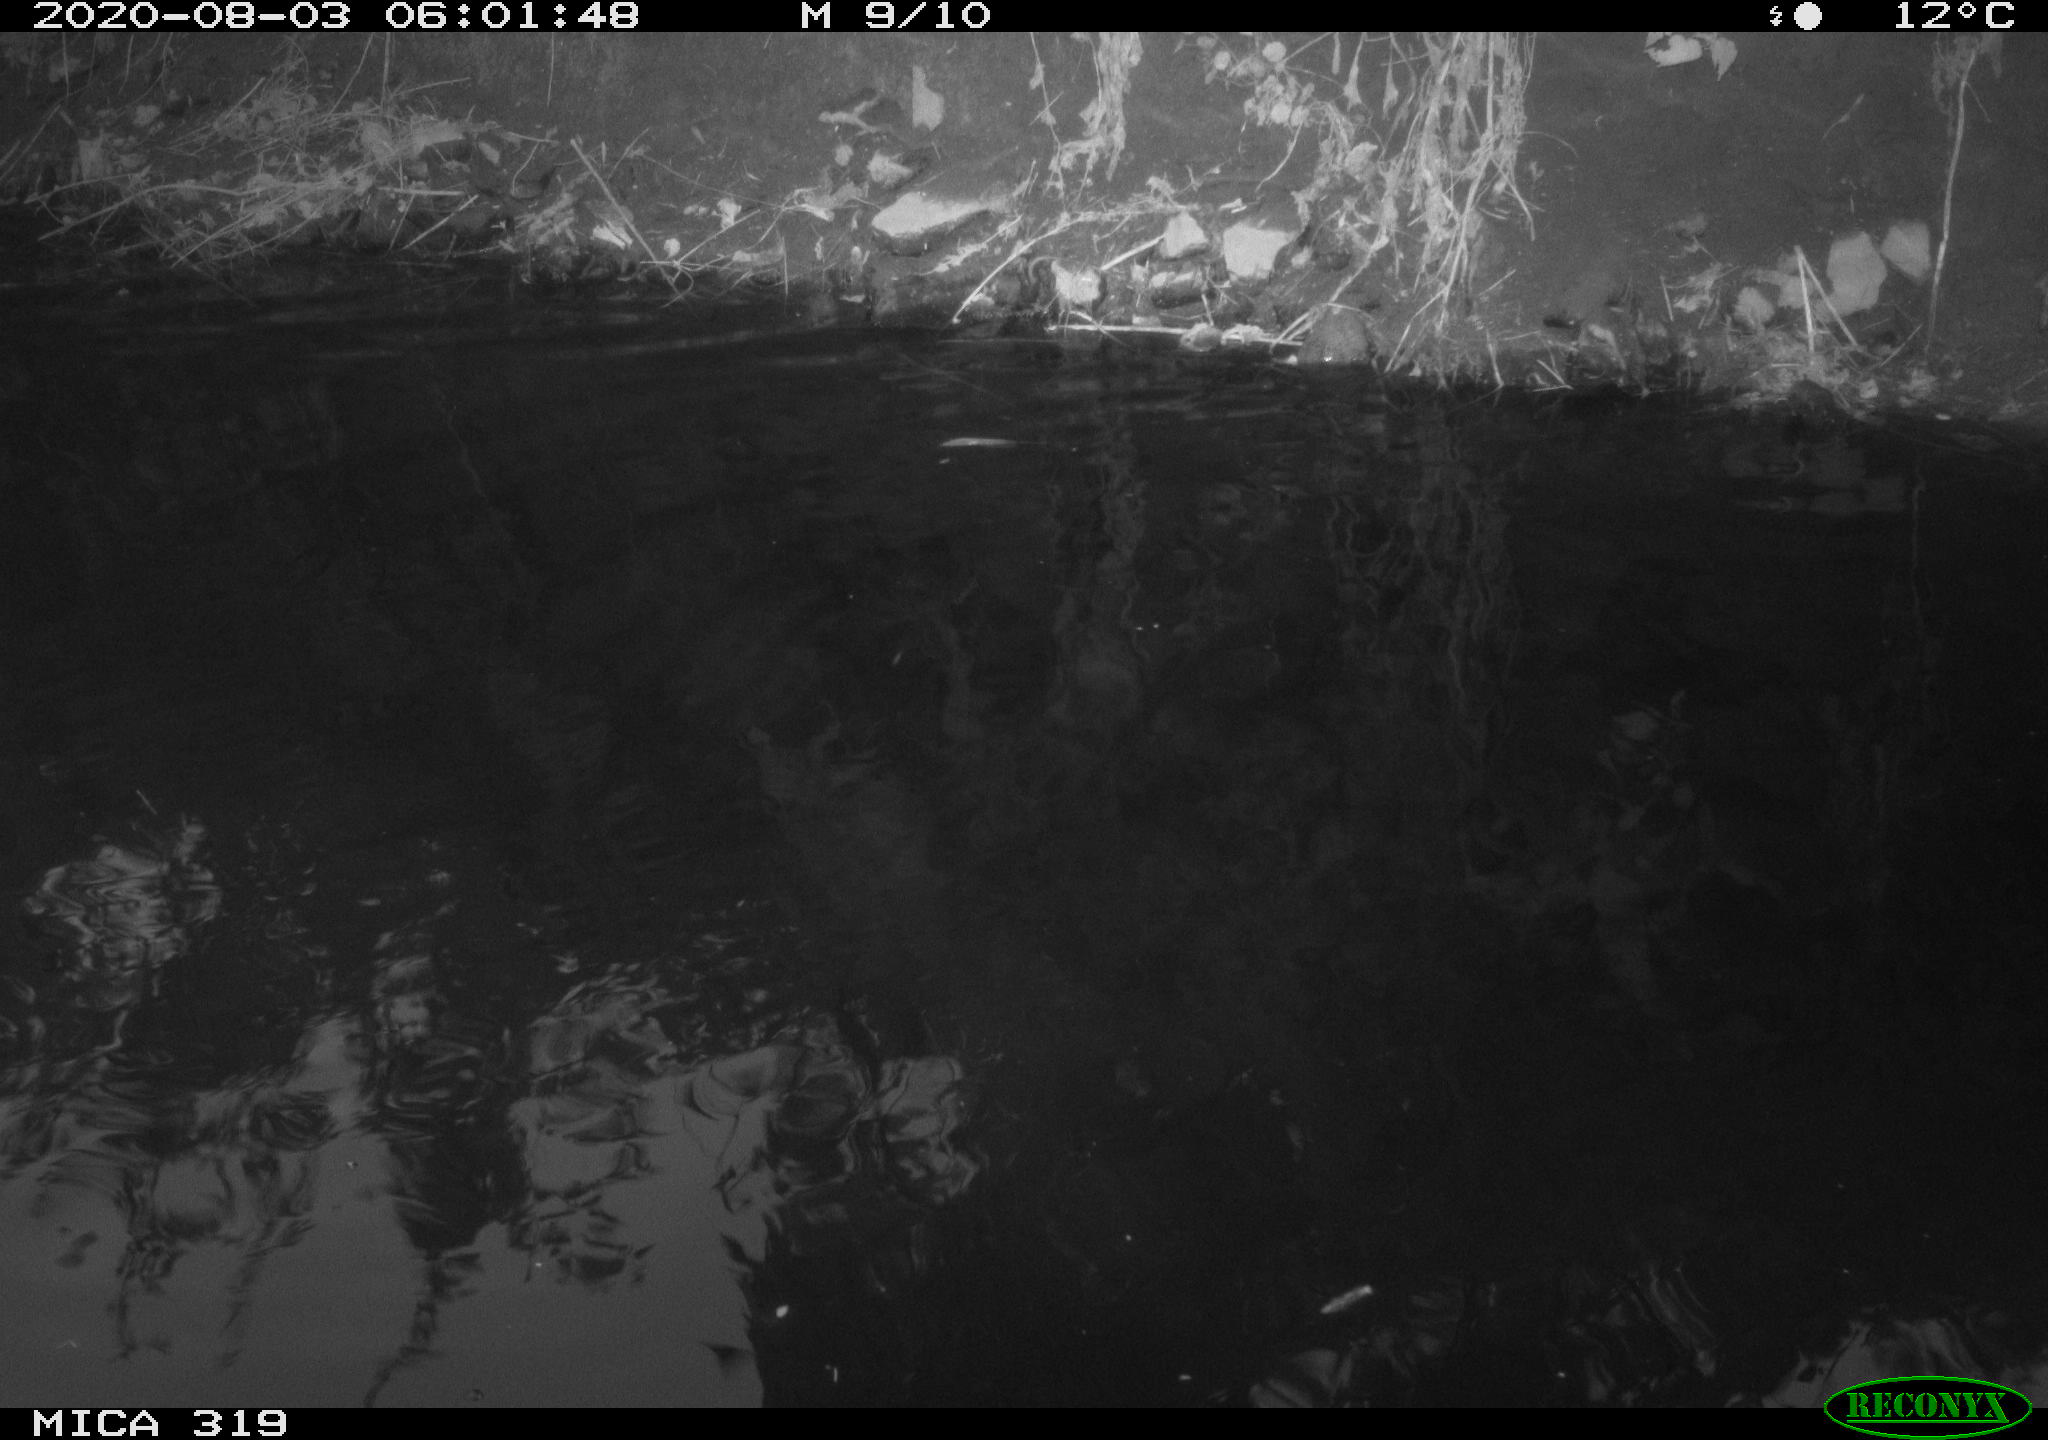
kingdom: Animalia
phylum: Chordata
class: Aves
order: Anseriformes
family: Anatidae
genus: Anas
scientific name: Anas platyrhynchos
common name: Mallard
